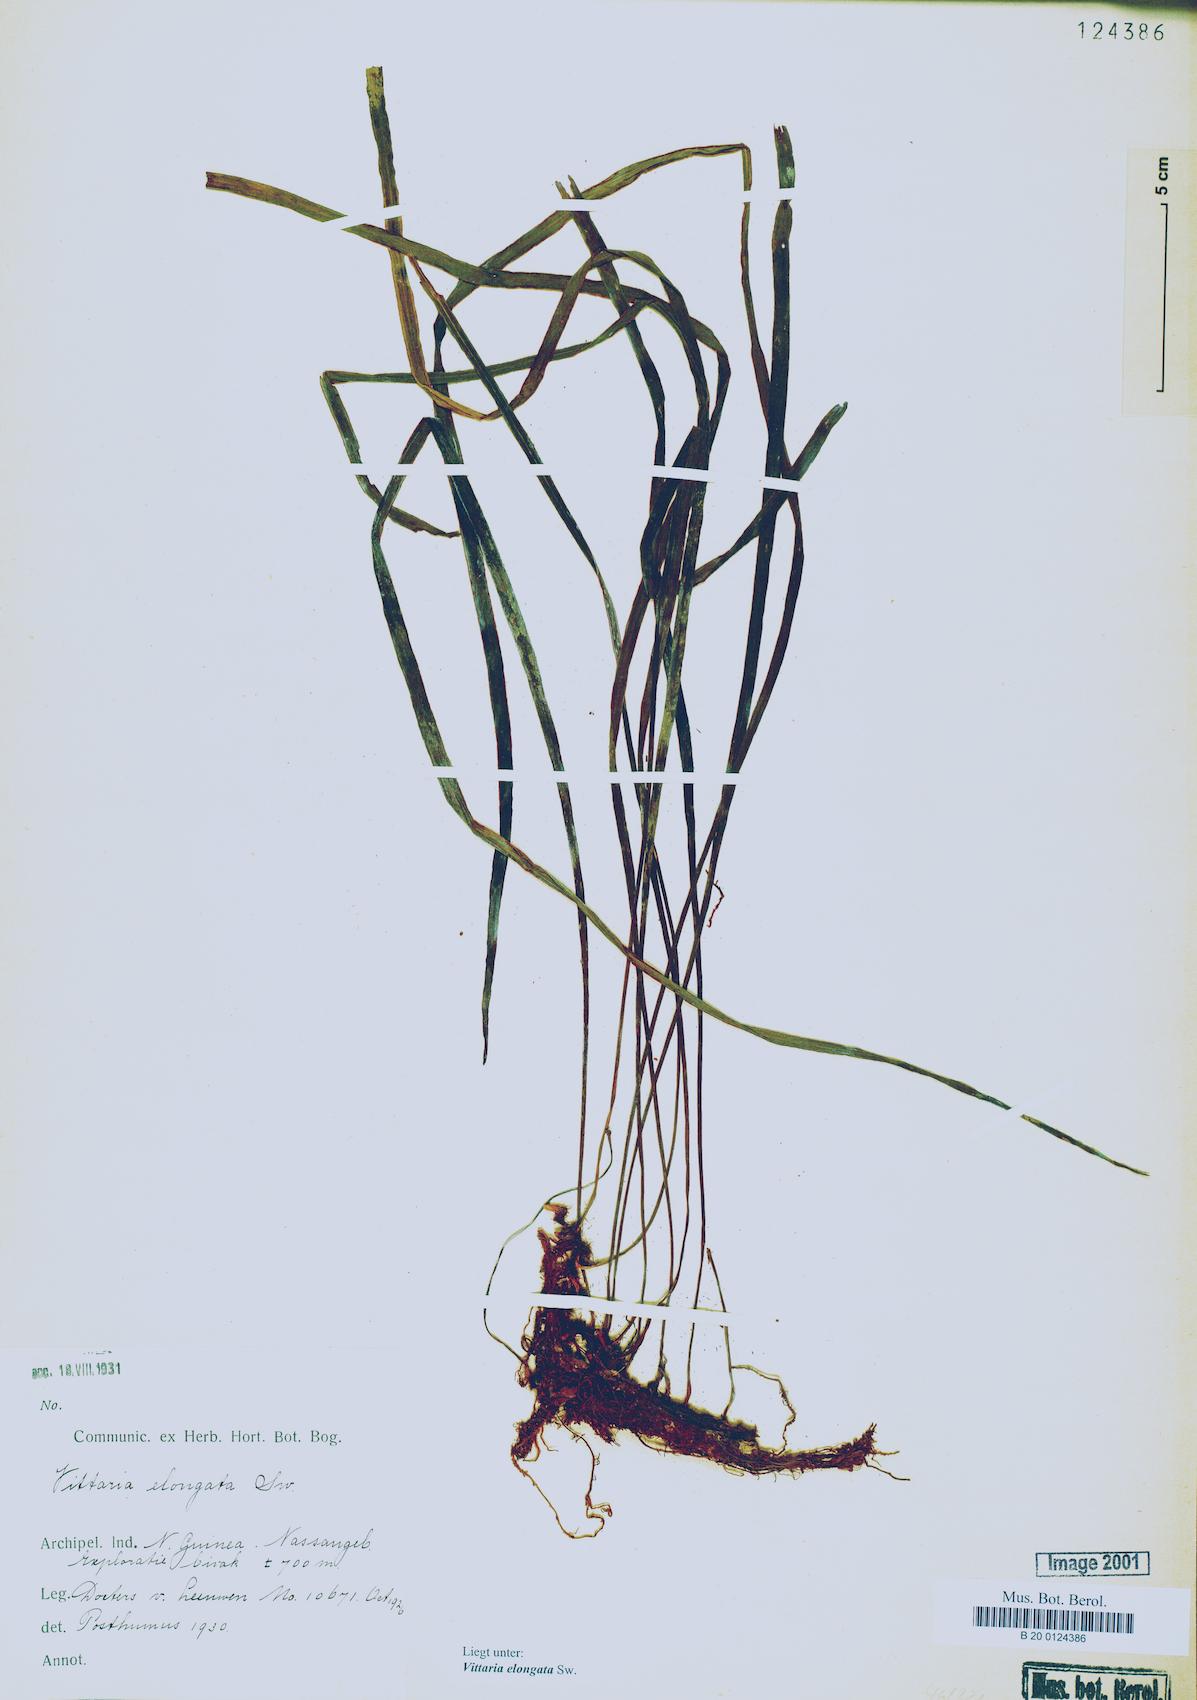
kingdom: Plantae
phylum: Tracheophyta
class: Polypodiopsida
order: Polypodiales
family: Pteridaceae
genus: Haplopteris
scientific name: Haplopteris elongata
